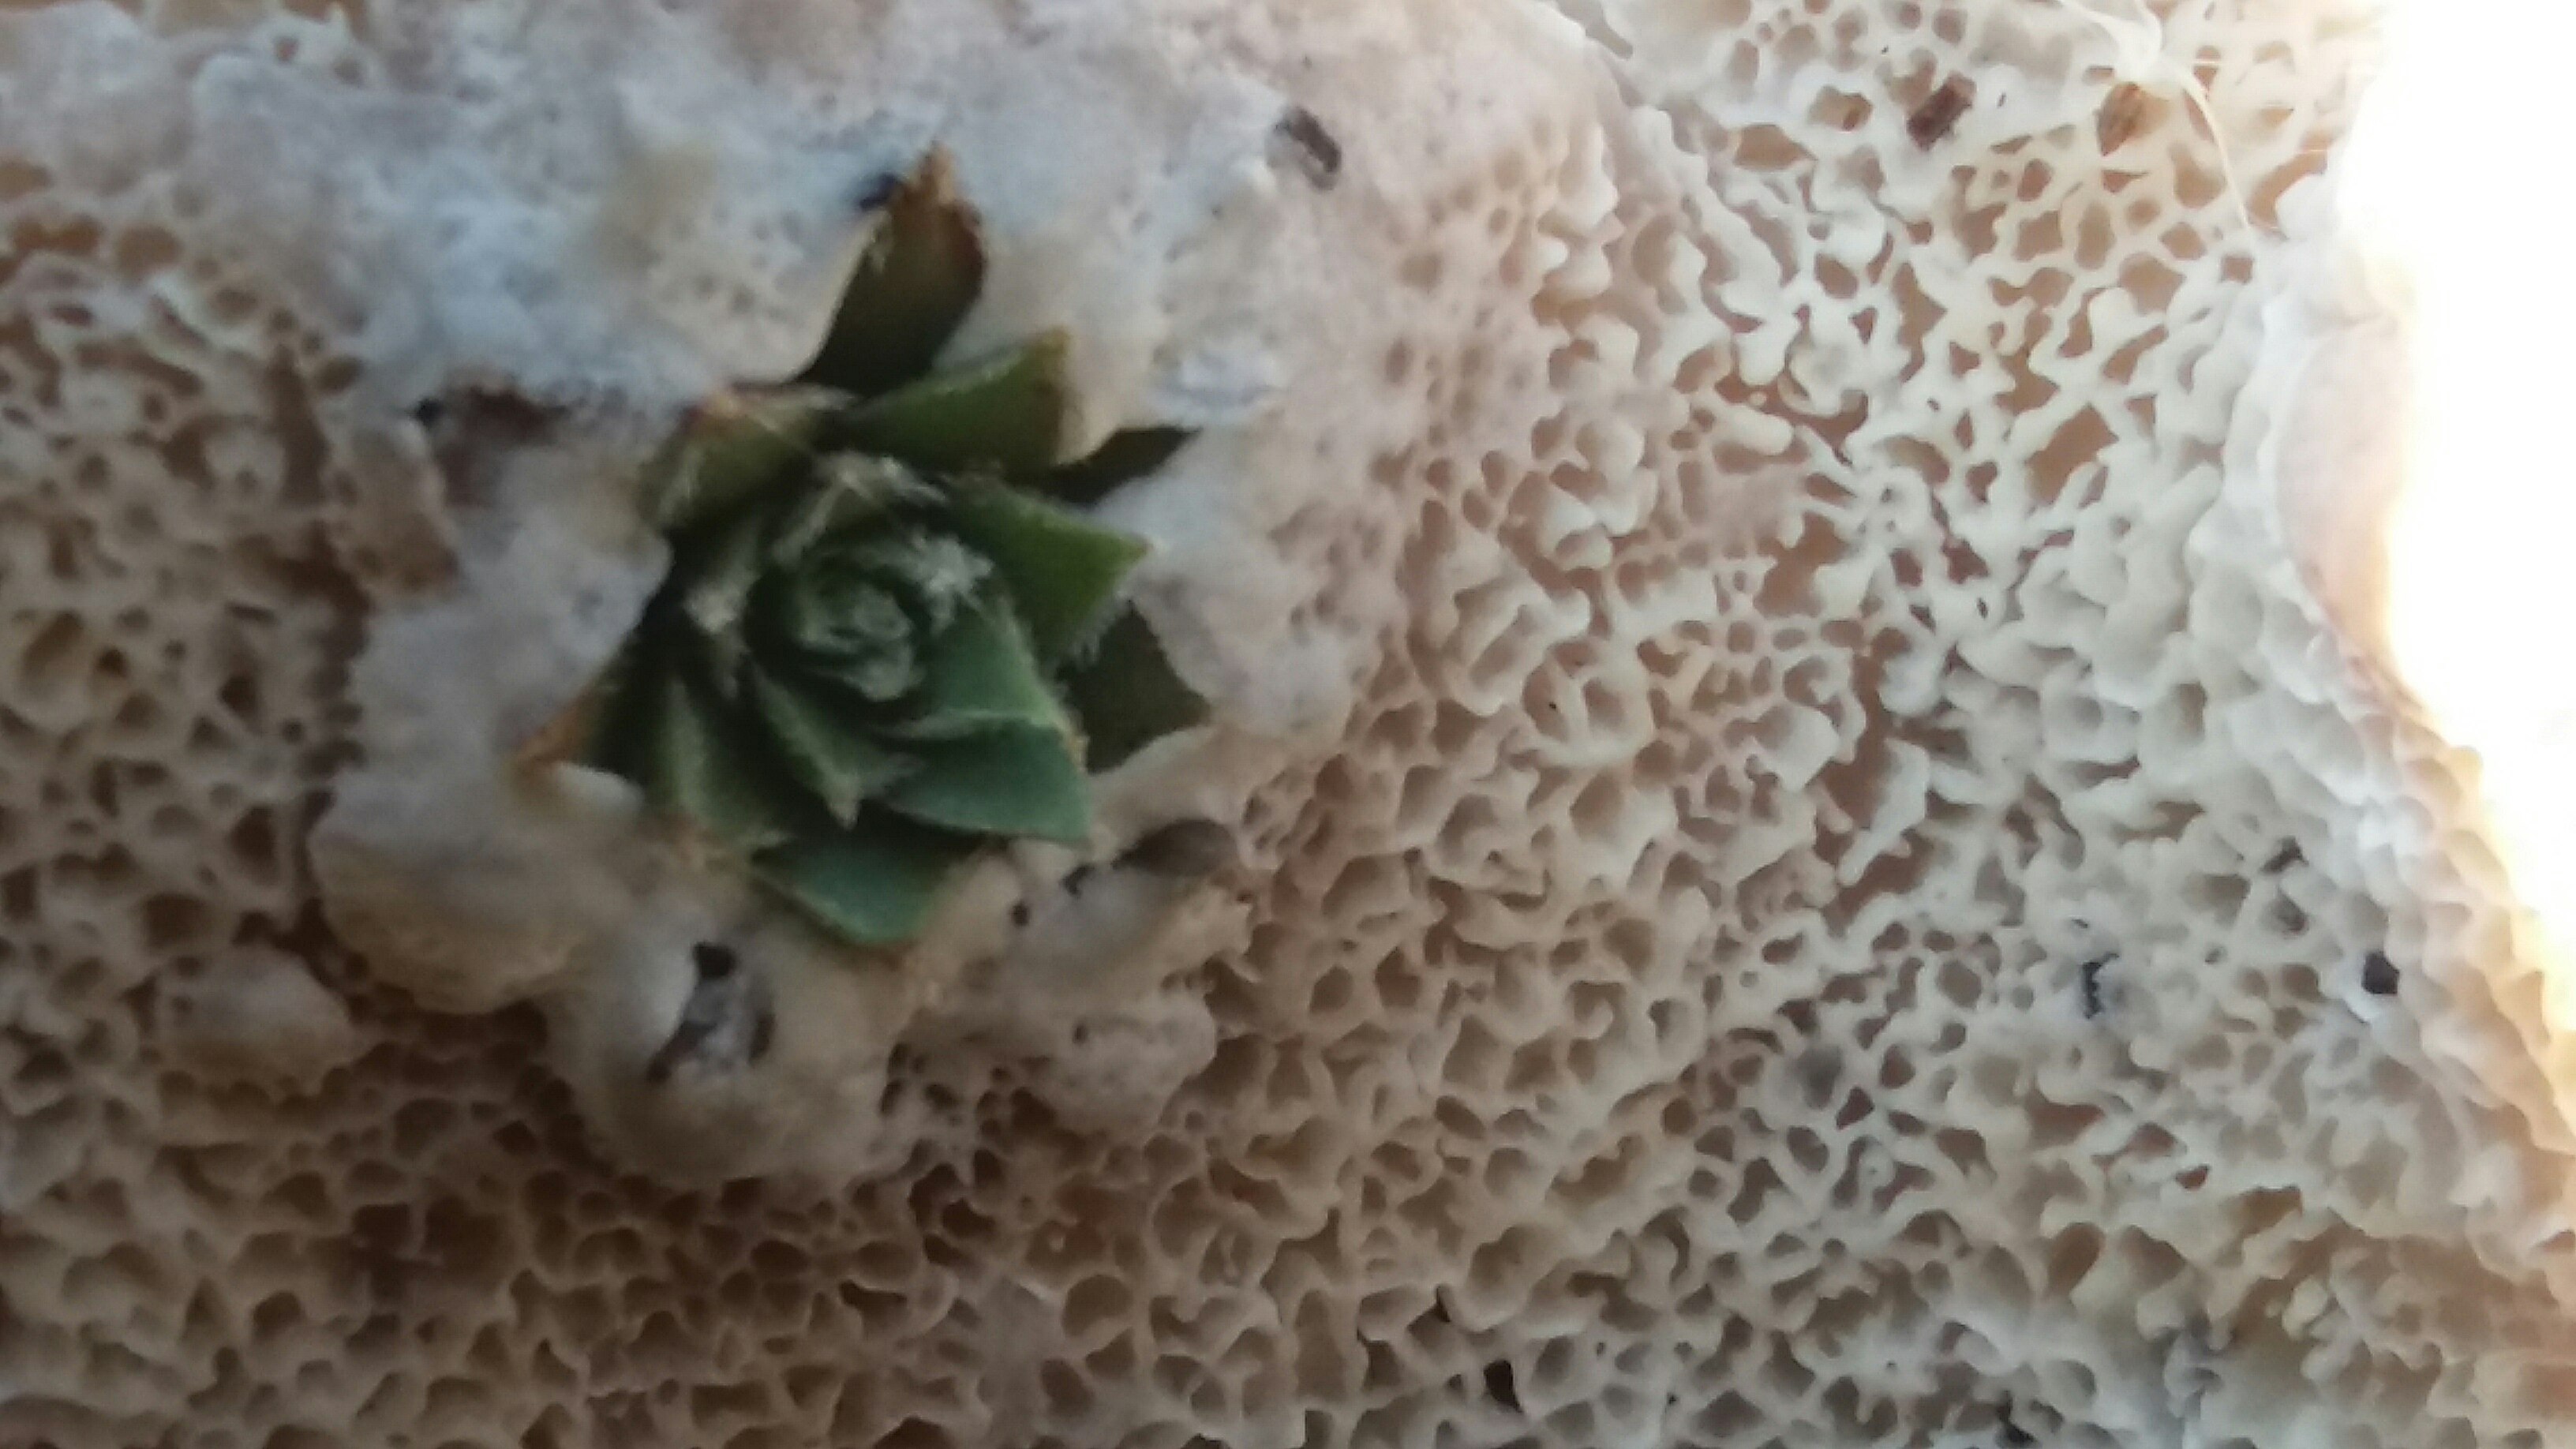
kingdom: Fungi
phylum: Basidiomycota
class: Agaricomycetes
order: Polyporales
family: Irpicaceae
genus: Irpex
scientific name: Irpex latemarginatus
